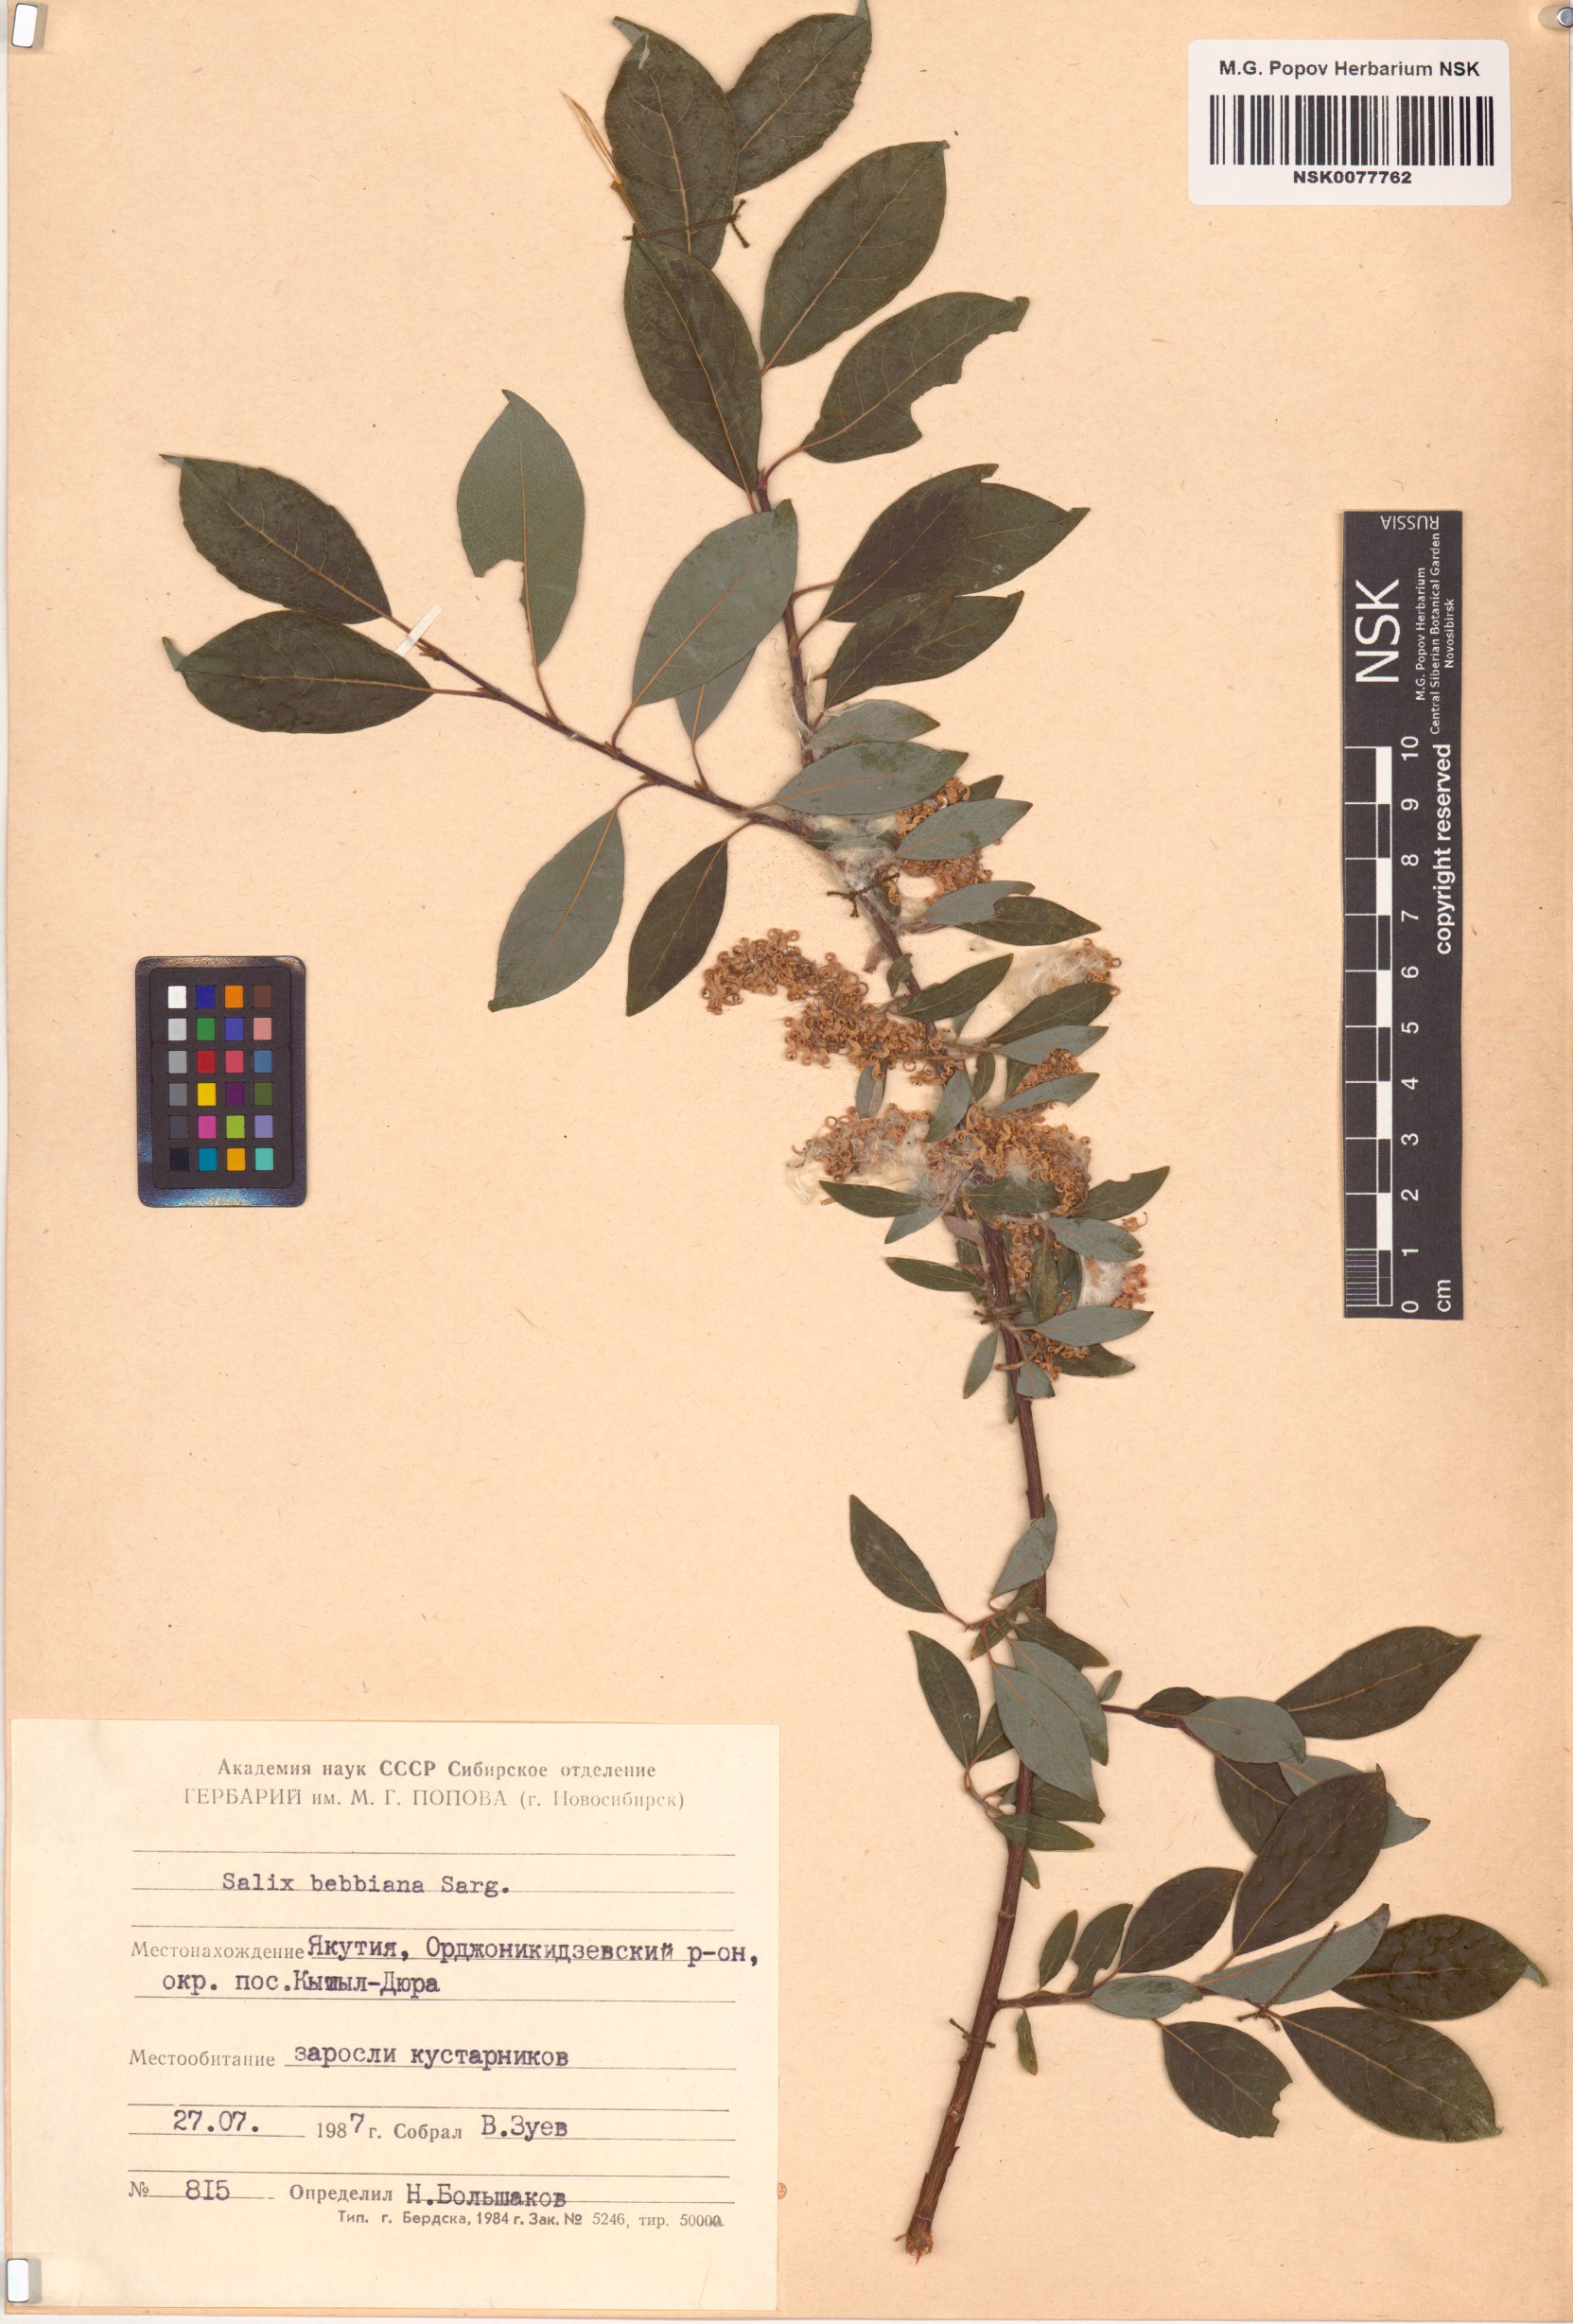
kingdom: Plantae
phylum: Tracheophyta
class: Magnoliopsida
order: Malpighiales
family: Salicaceae
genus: Salix
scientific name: Salix bebbiana
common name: Bebb's willow
